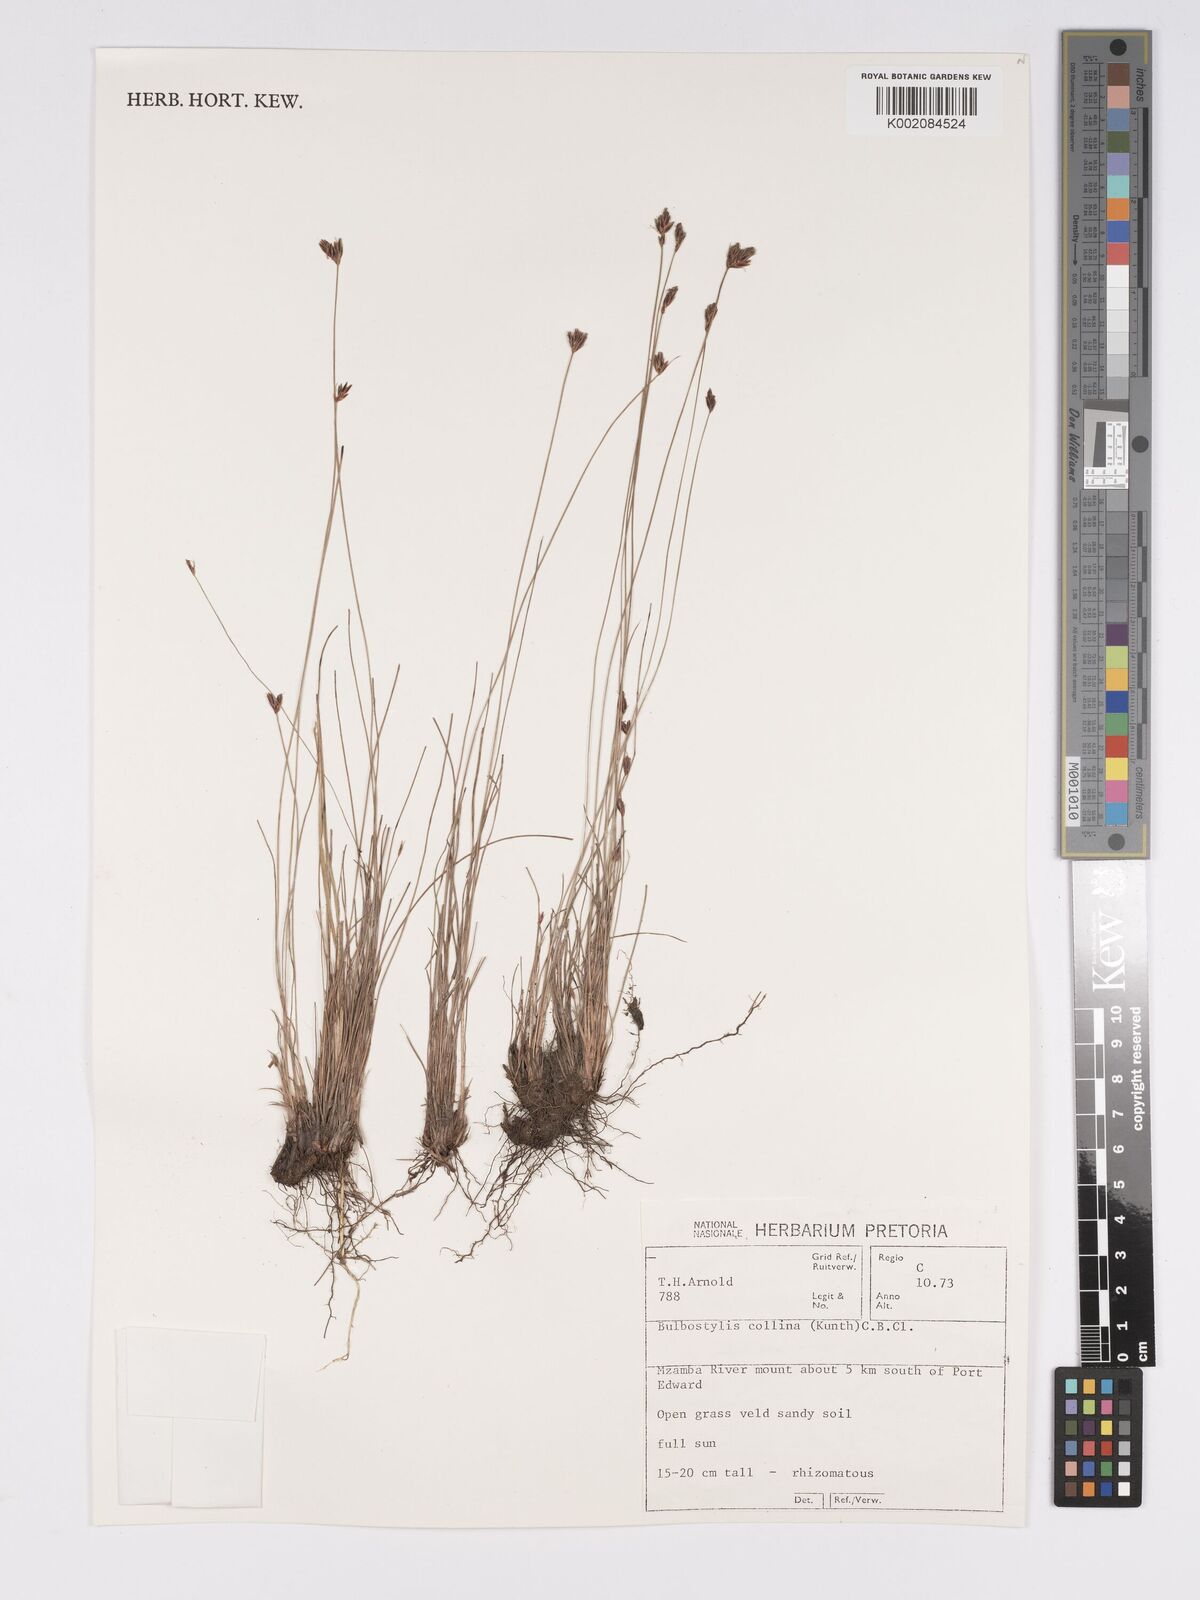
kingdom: Plantae
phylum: Tracheophyta
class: Liliopsida
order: Poales
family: Cyperaceae
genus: Bulbostylis
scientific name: Bulbostylis contexta
